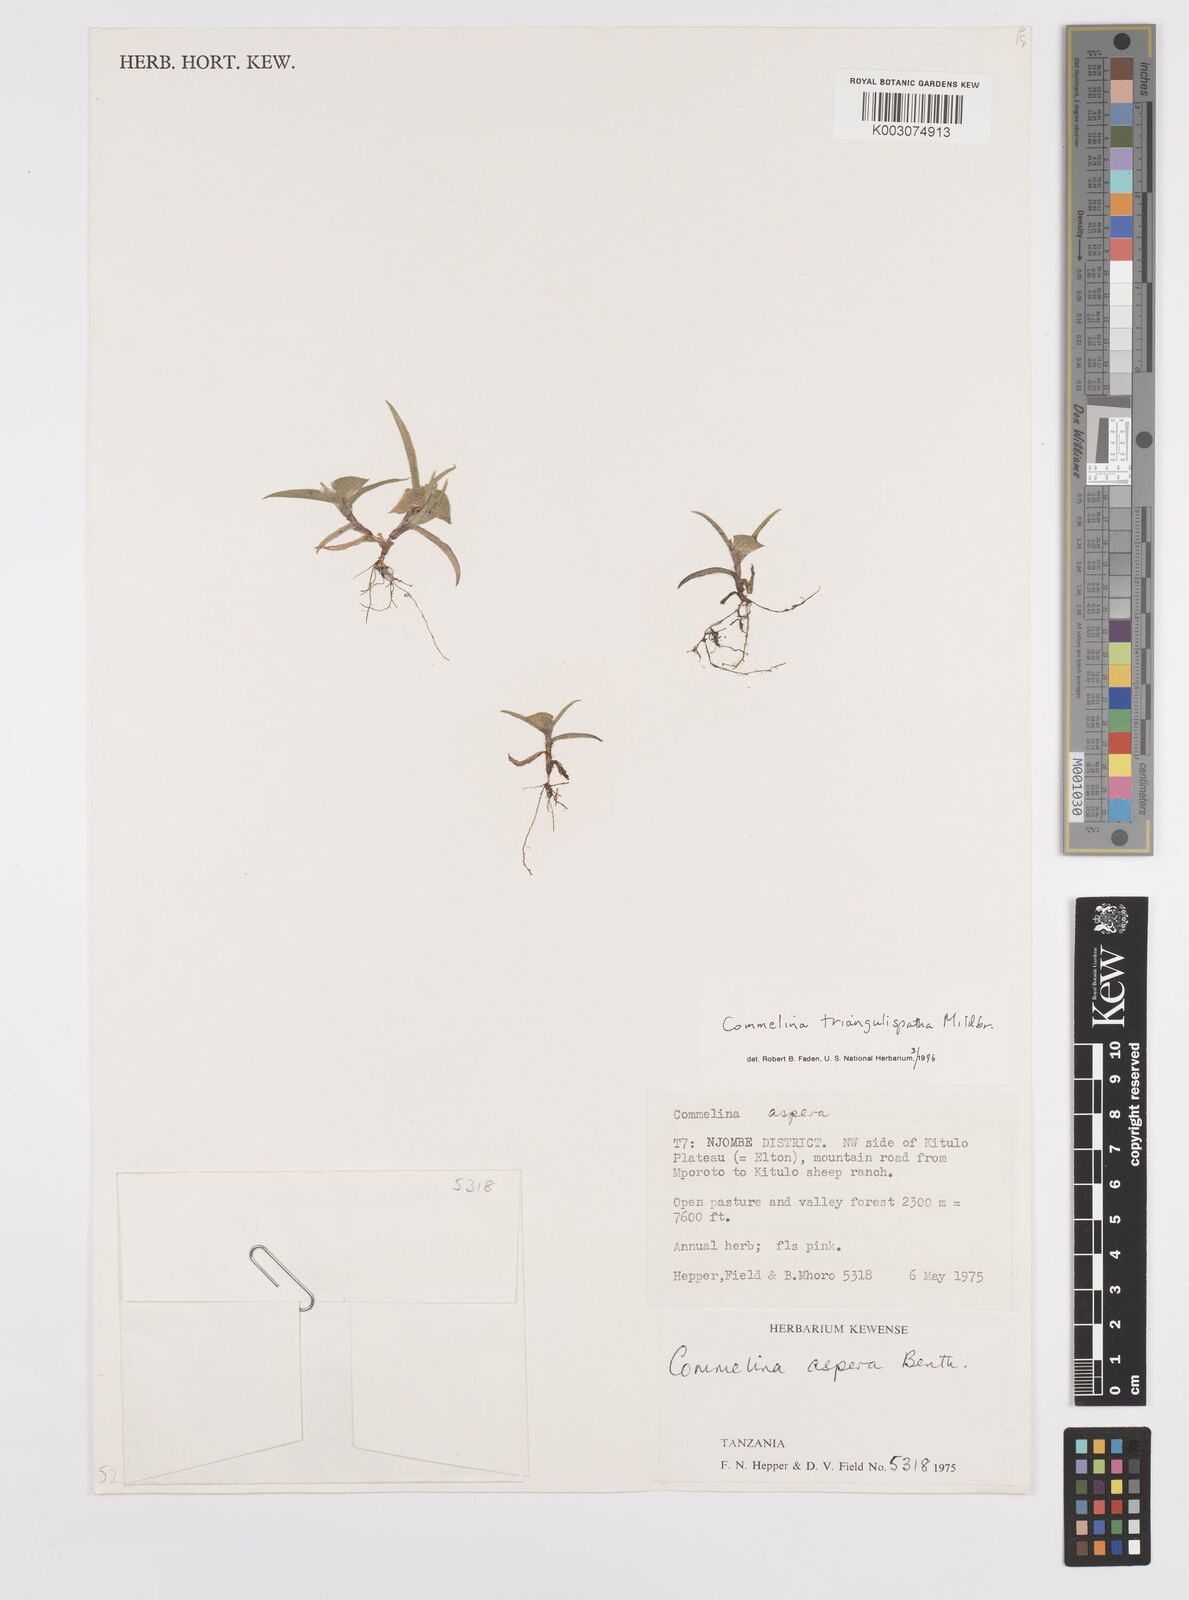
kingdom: Plantae
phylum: Tracheophyta
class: Liliopsida
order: Commelinales
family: Commelinaceae
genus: Commelina
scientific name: Commelina triangulispatha
